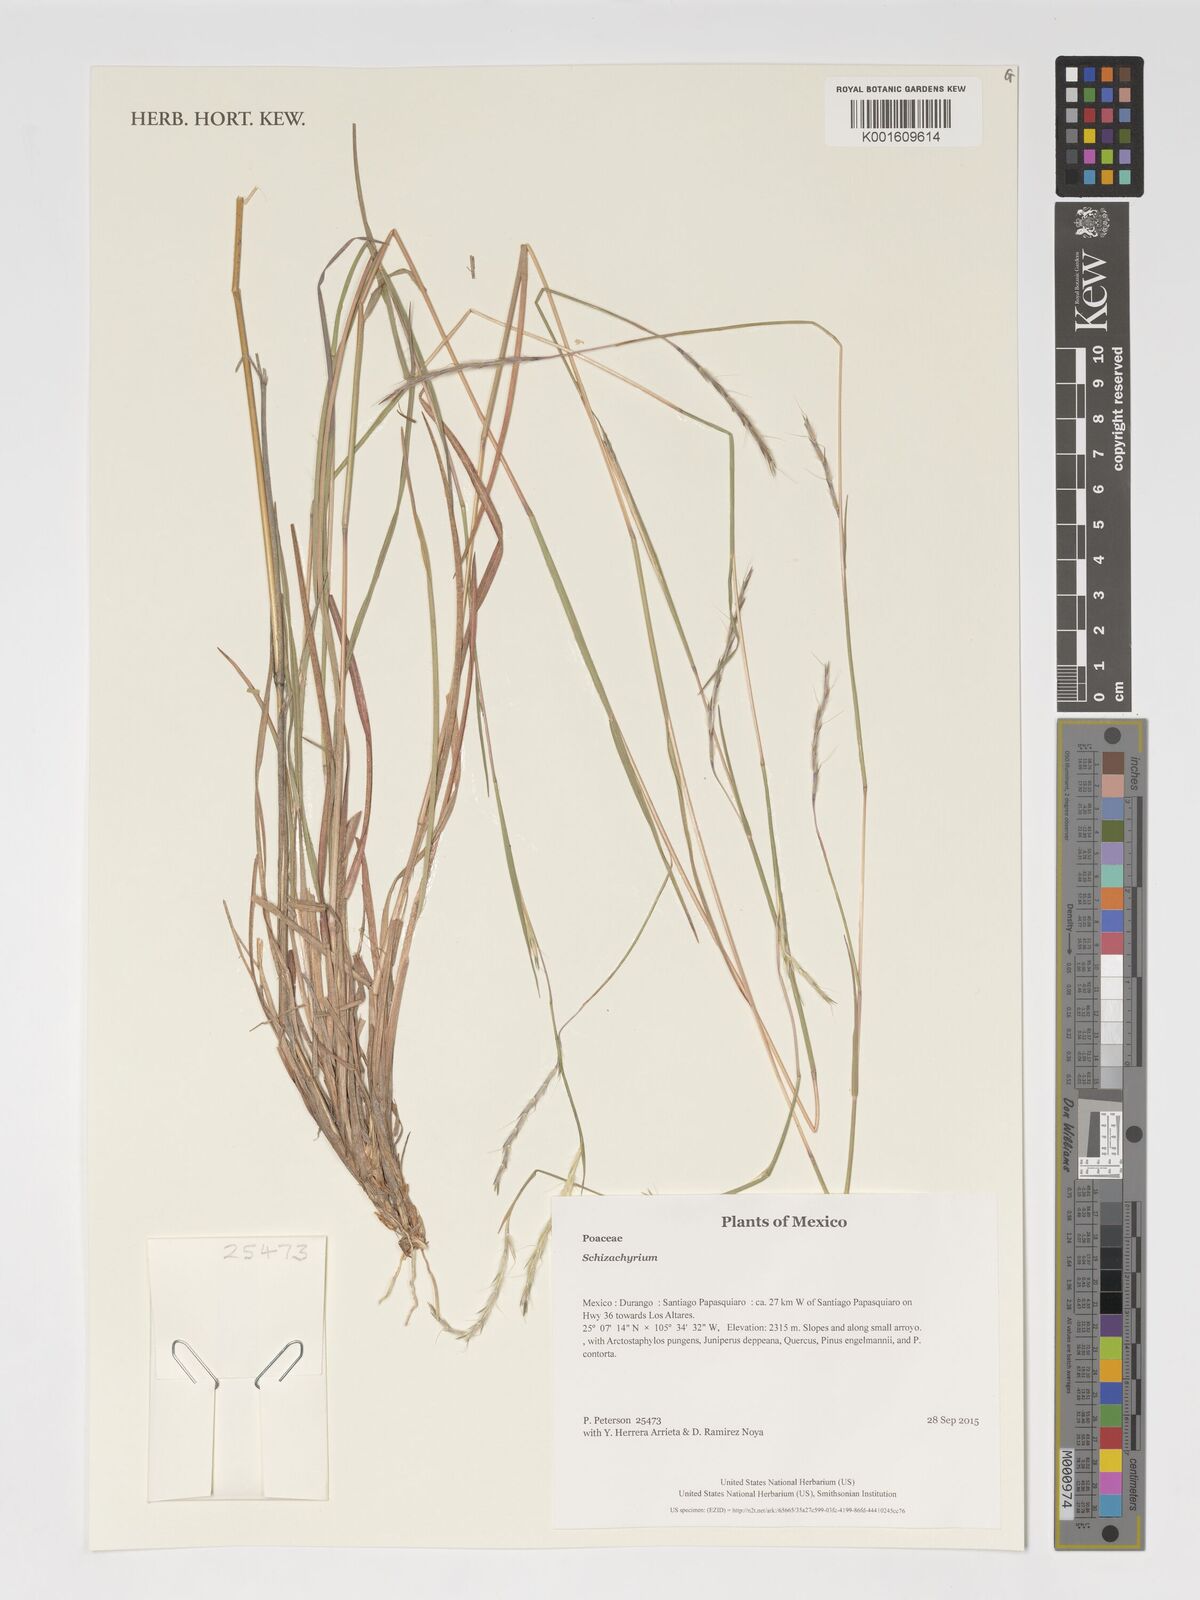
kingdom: Plantae
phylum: Tracheophyta
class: Liliopsida
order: Poales
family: Poaceae
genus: Schizachyrium
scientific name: Schizachyrium
